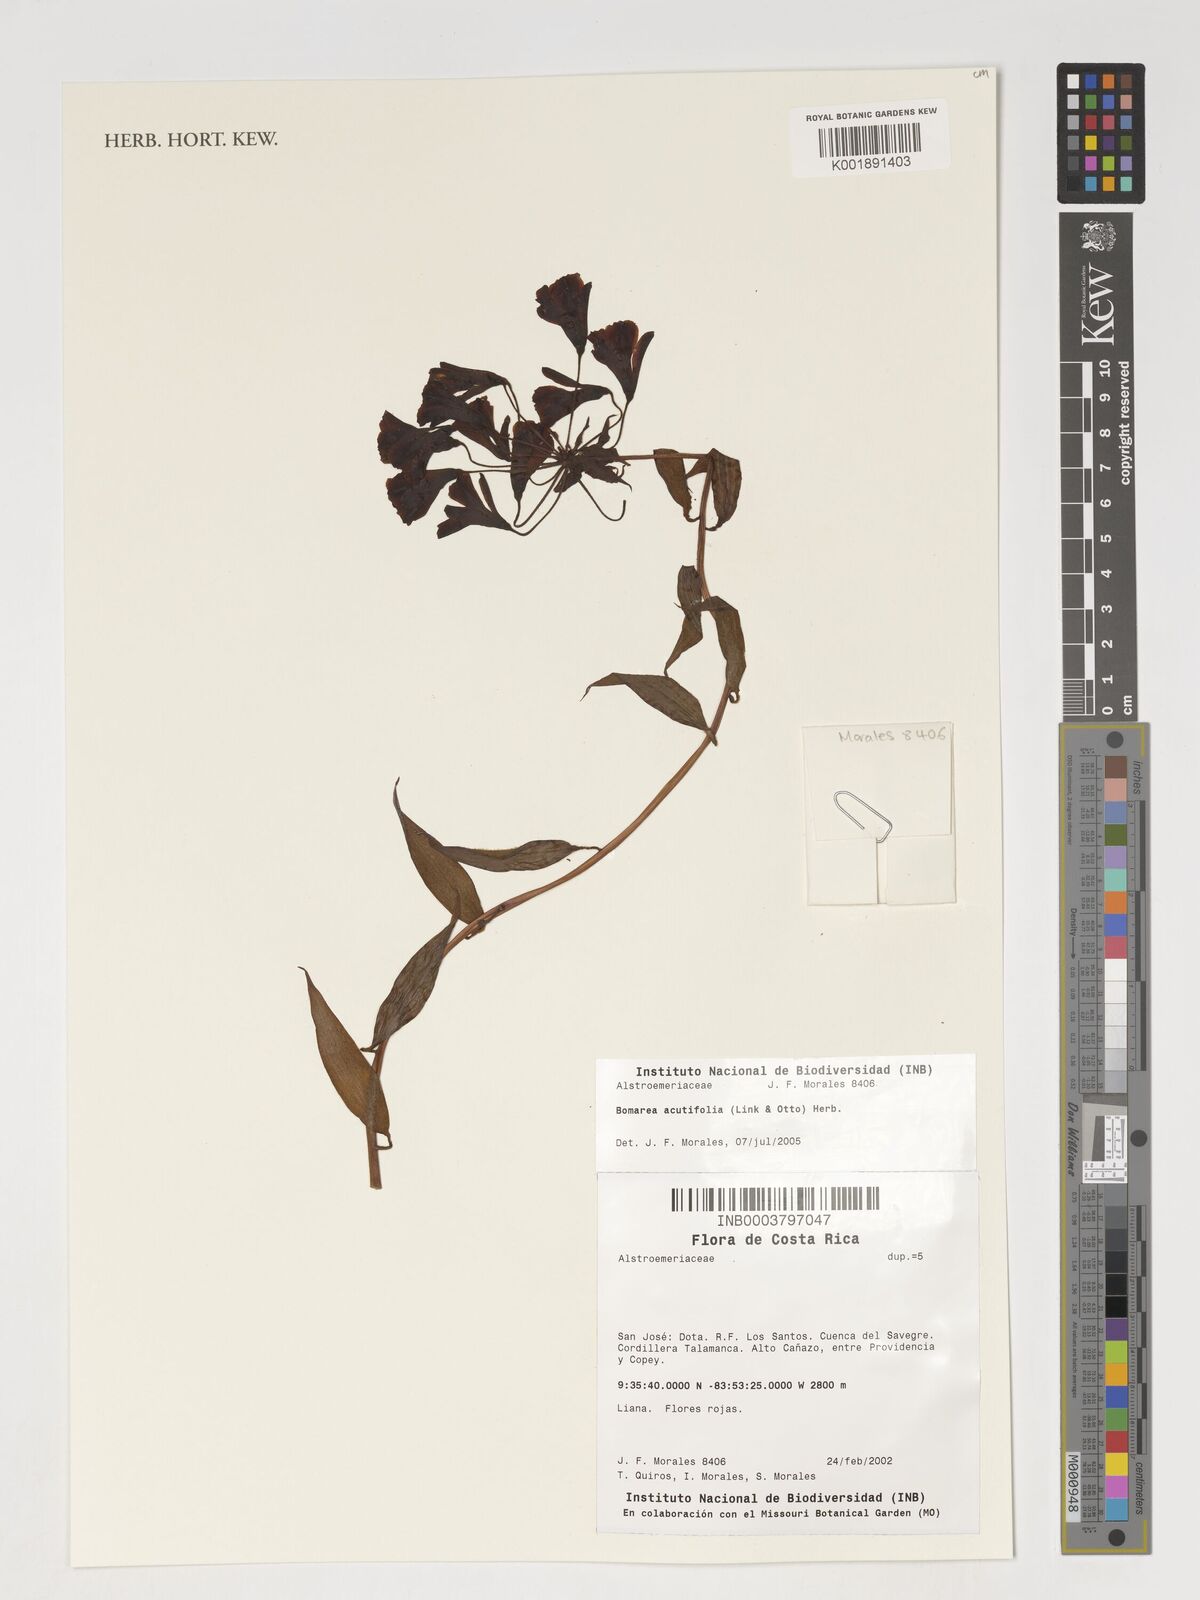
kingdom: Plantae
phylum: Tracheophyta
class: Liliopsida
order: Liliales
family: Alstroemeriaceae
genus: Bomarea
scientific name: Bomarea acutifolia
